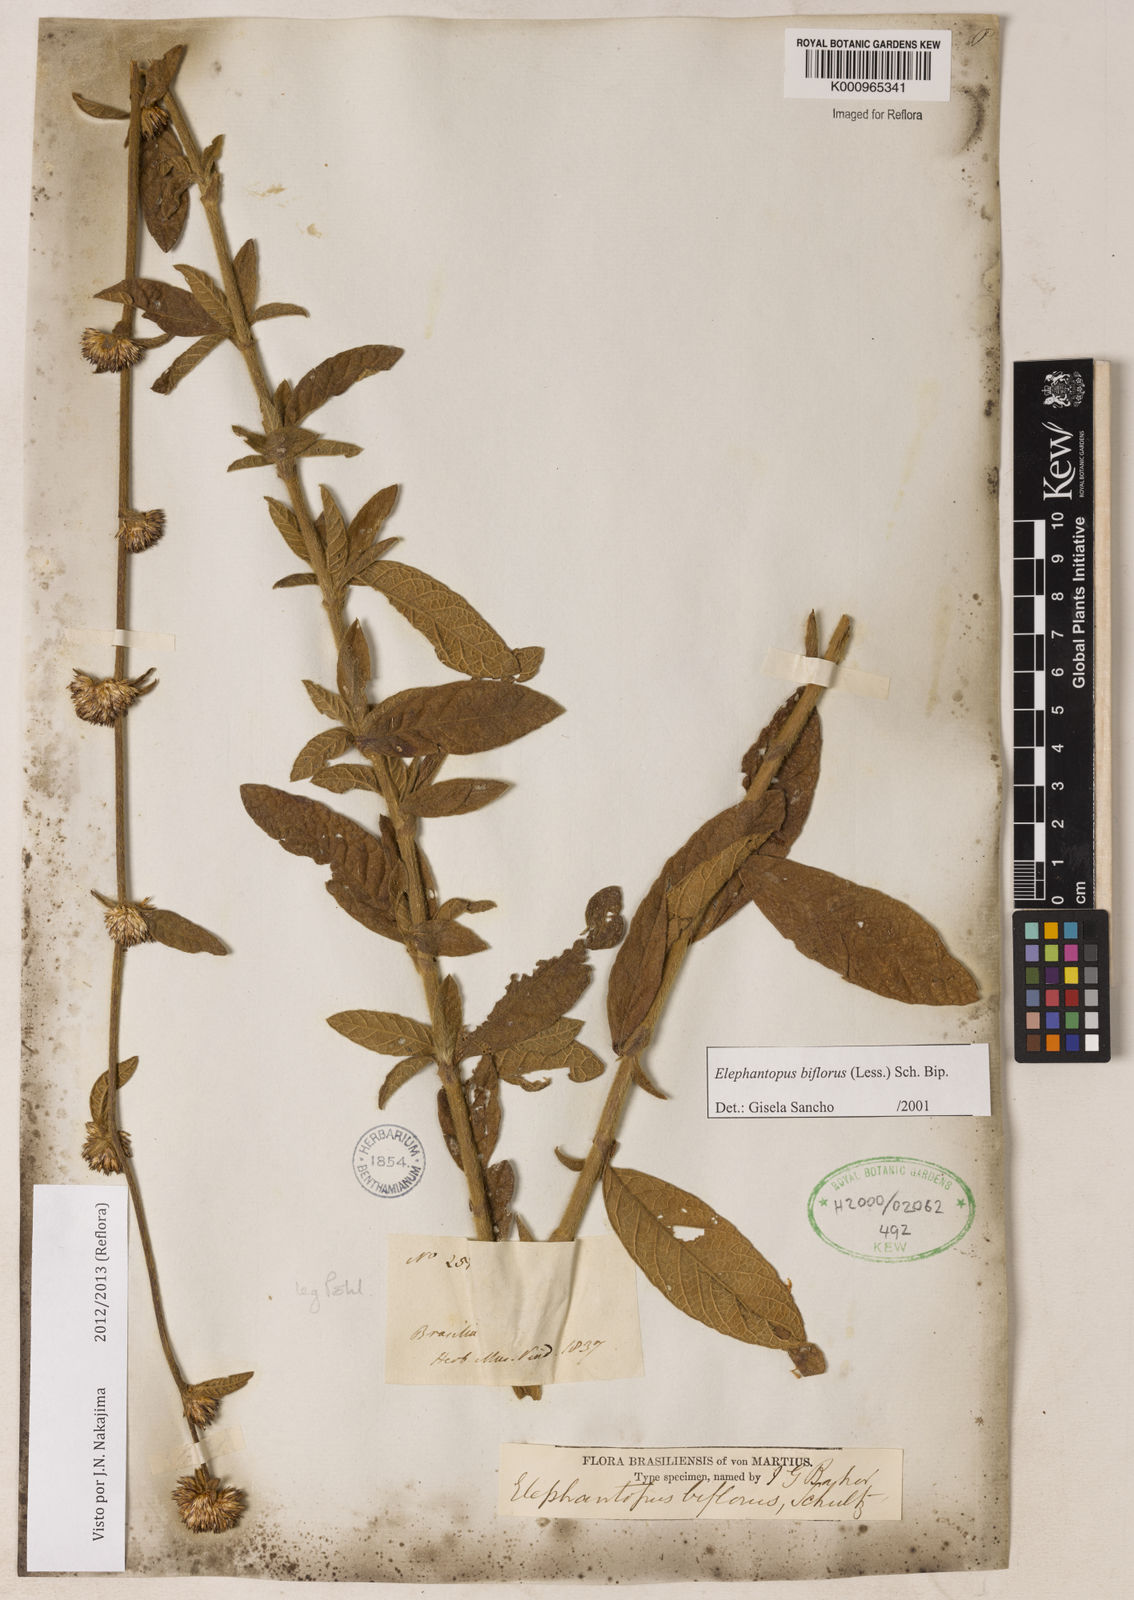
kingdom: Plantae
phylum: Tracheophyta
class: Magnoliopsida
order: Asterales
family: Asteraceae
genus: Elephantopus
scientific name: Elephantopus biflorus
